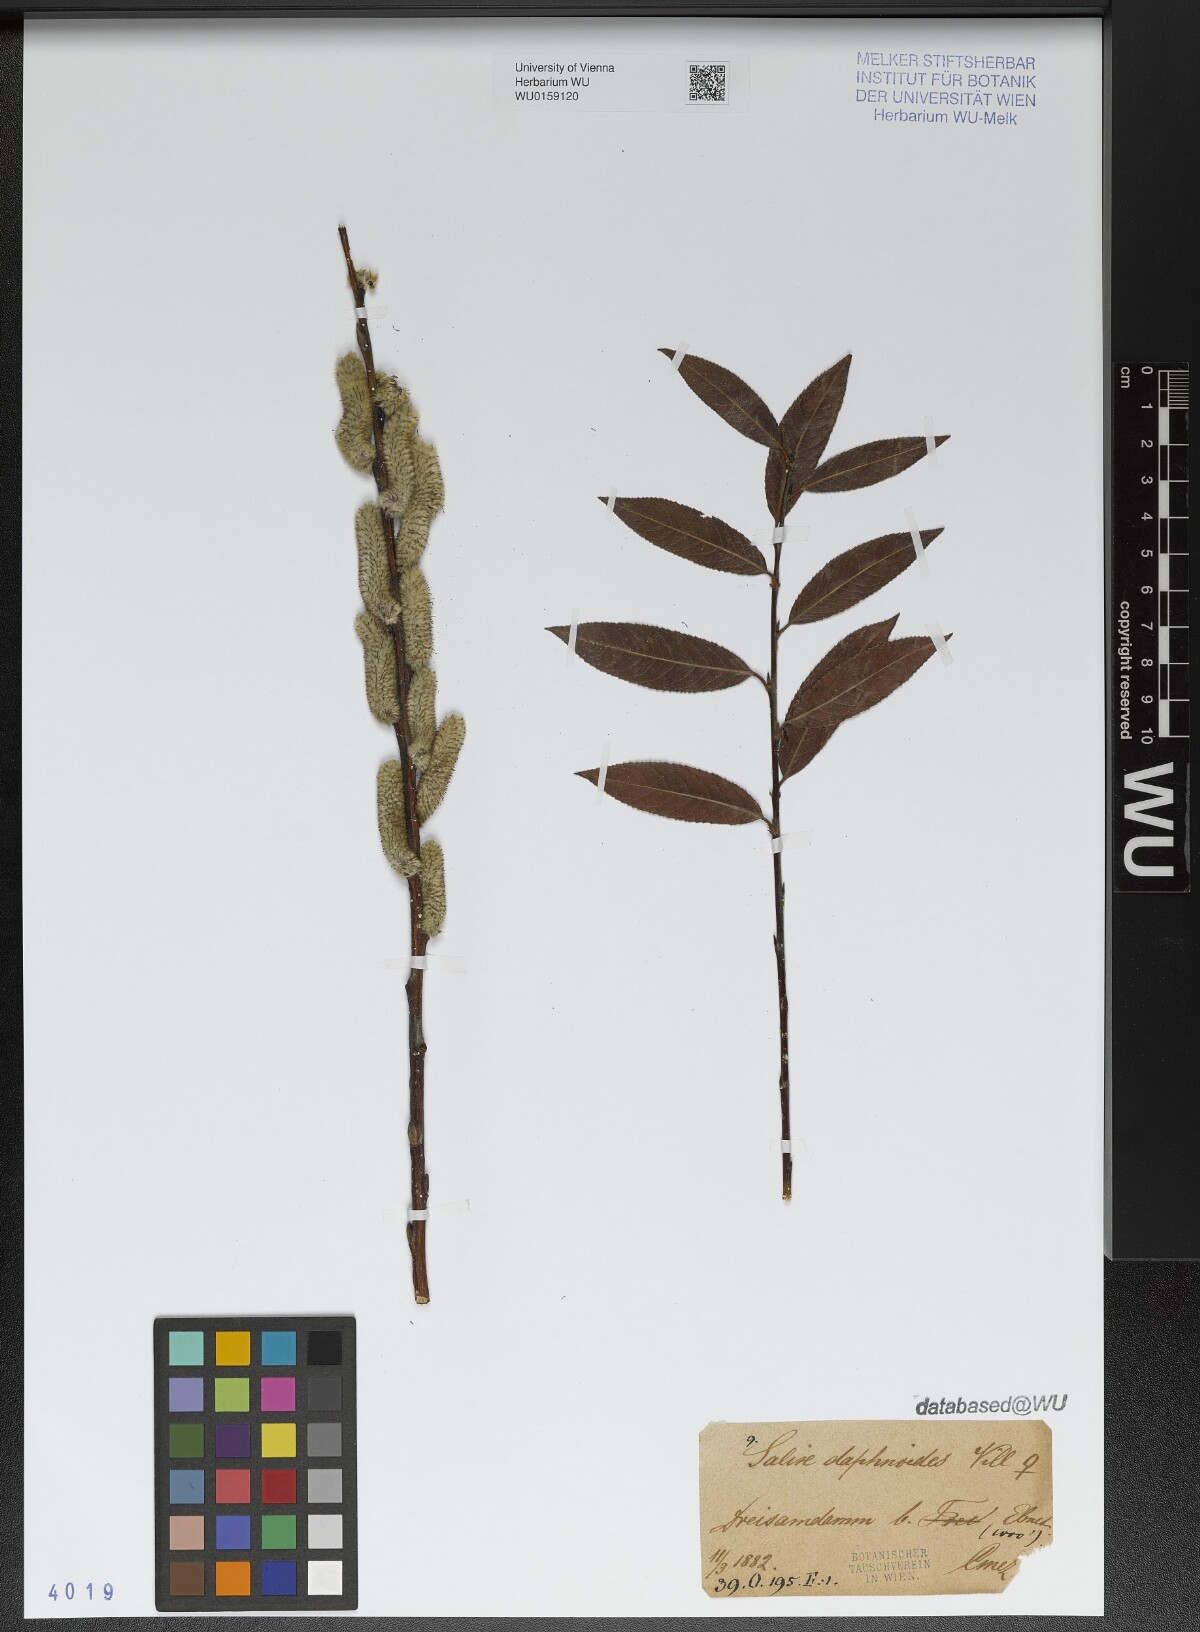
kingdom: Plantae
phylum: Tracheophyta
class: Magnoliopsida
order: Malpighiales
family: Salicaceae
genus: Salix
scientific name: Salix daphnoides
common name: European violet-willow
